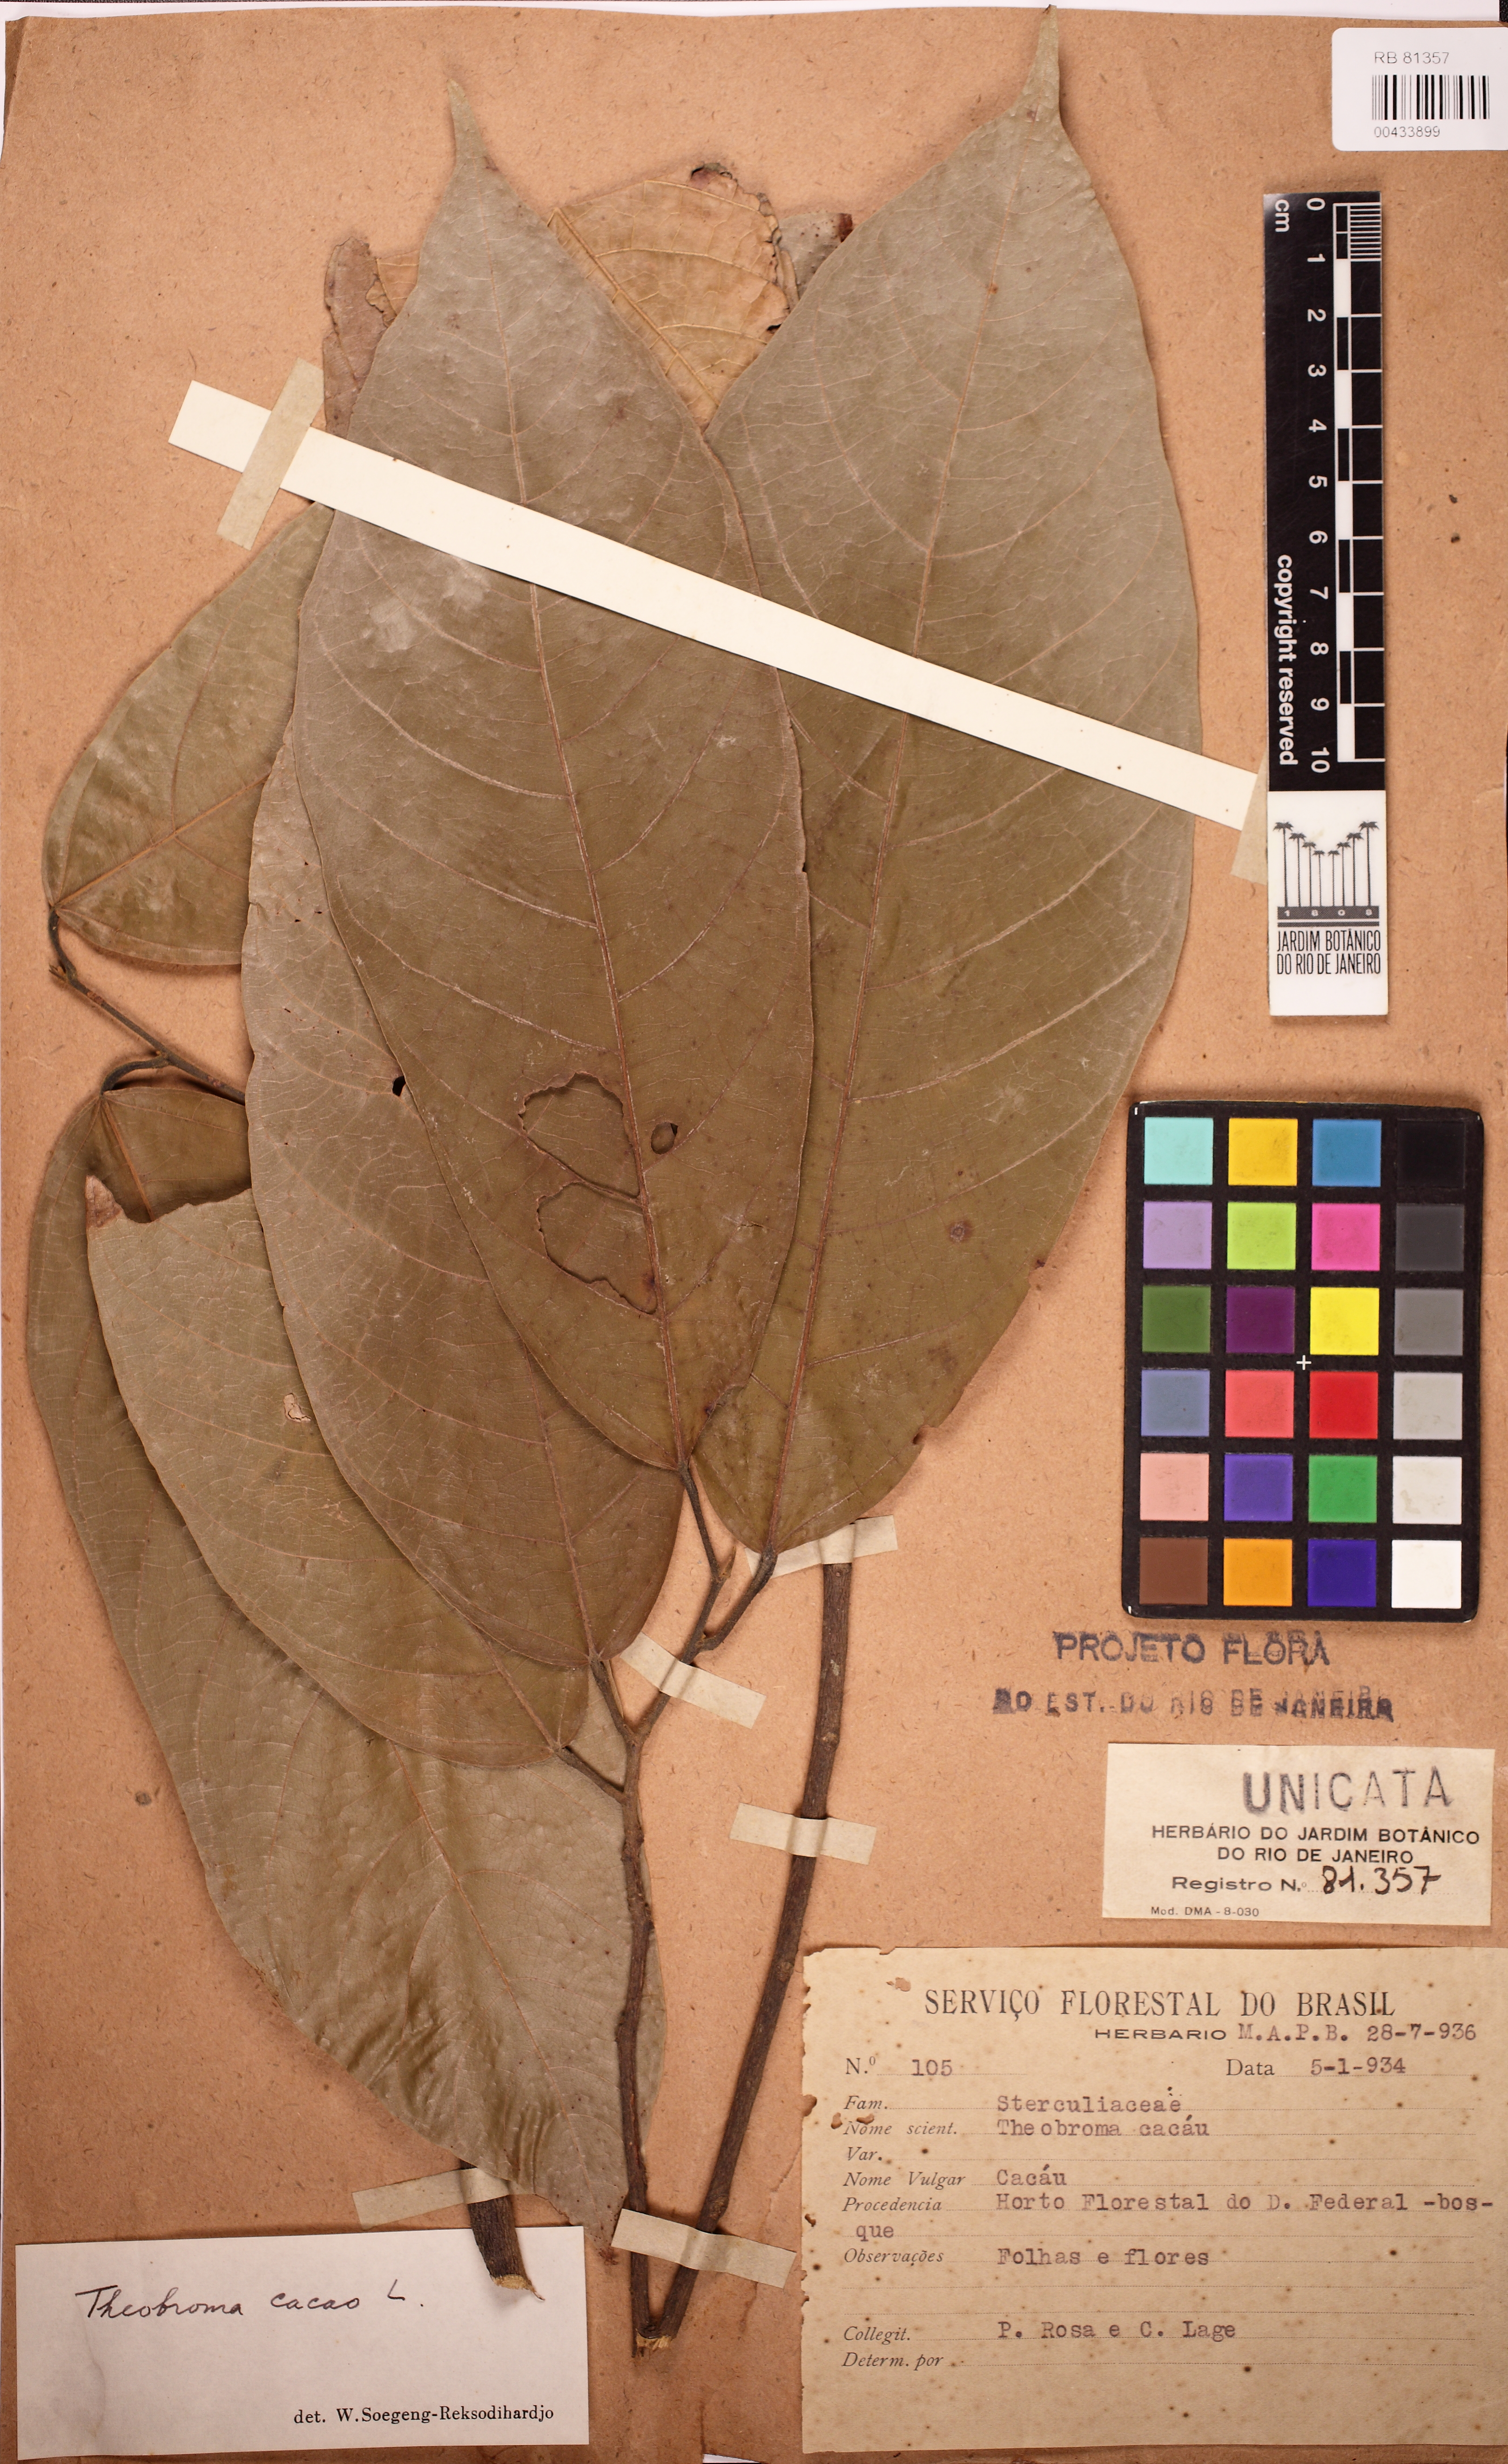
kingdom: Plantae
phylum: Tracheophyta
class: Magnoliopsida
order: Malvales
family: Malvaceae
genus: Theobroma
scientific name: Theobroma cacao
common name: Cocoa
